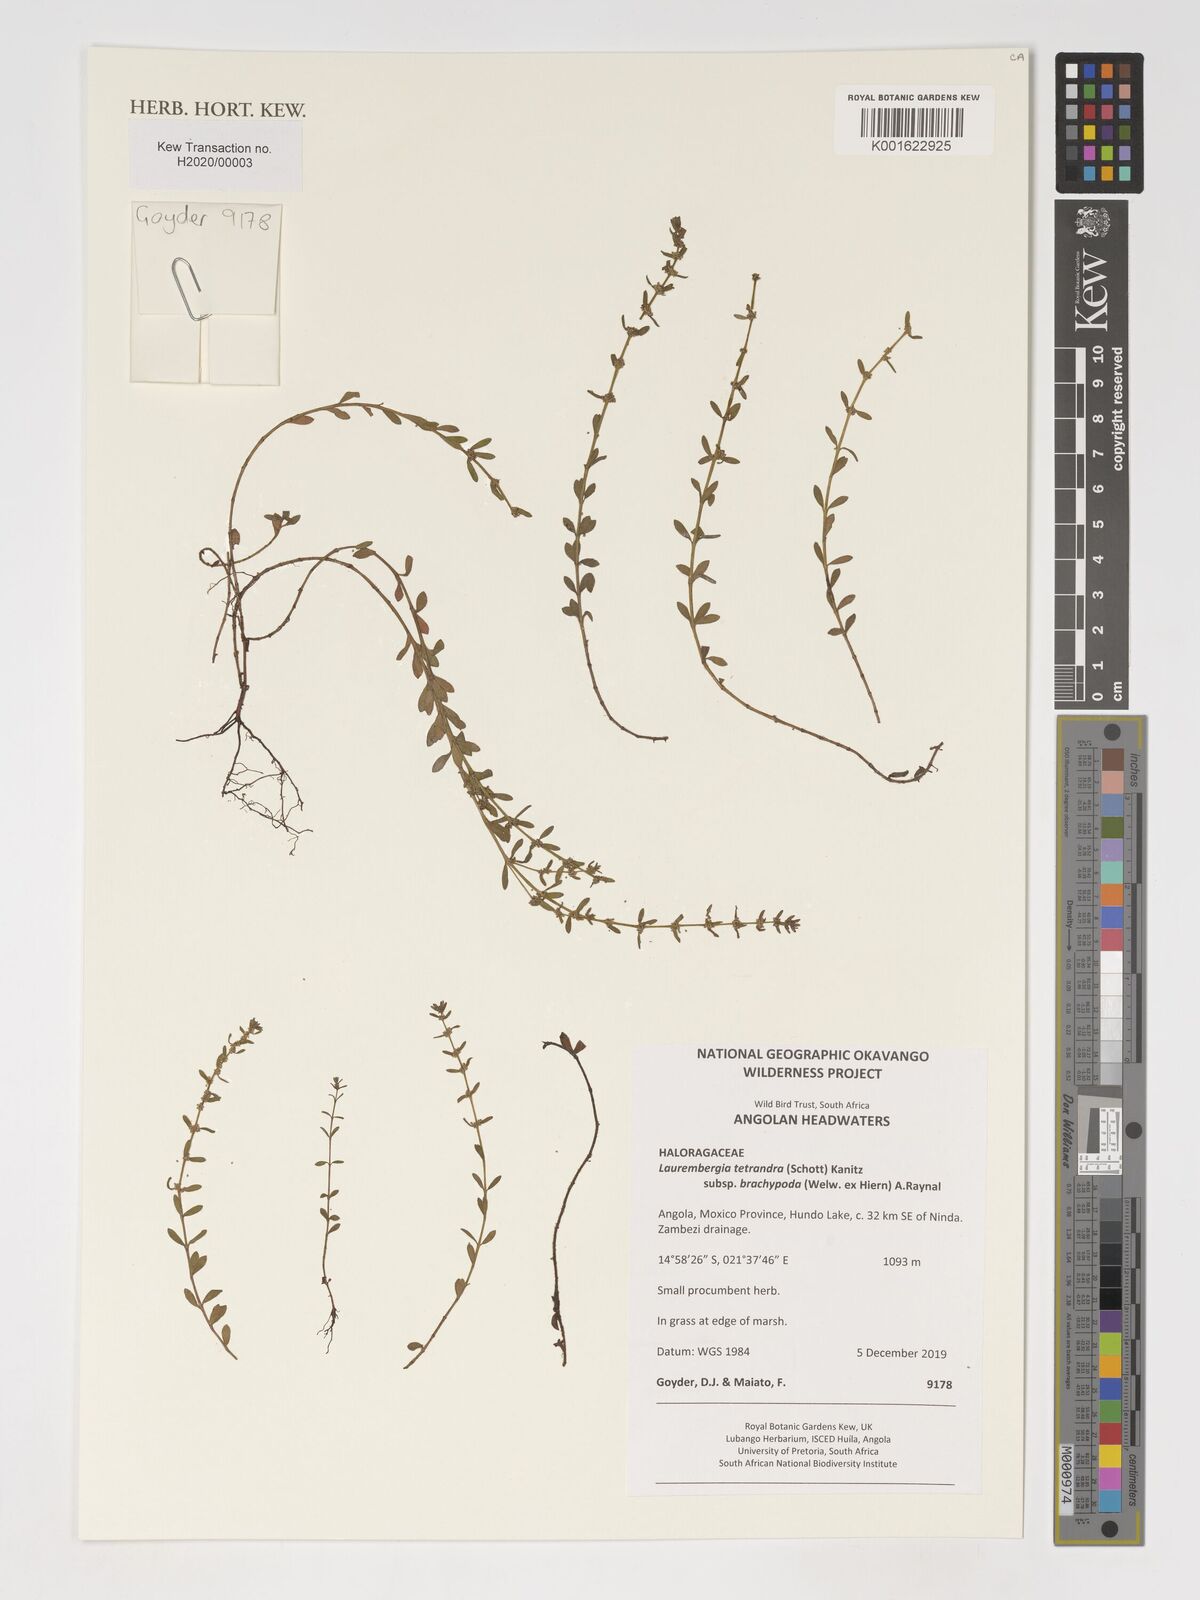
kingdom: Plantae
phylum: Tracheophyta
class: Magnoliopsida
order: Saxifragales
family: Haloragaceae
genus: Laurembergia
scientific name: Laurembergia tetrandra
